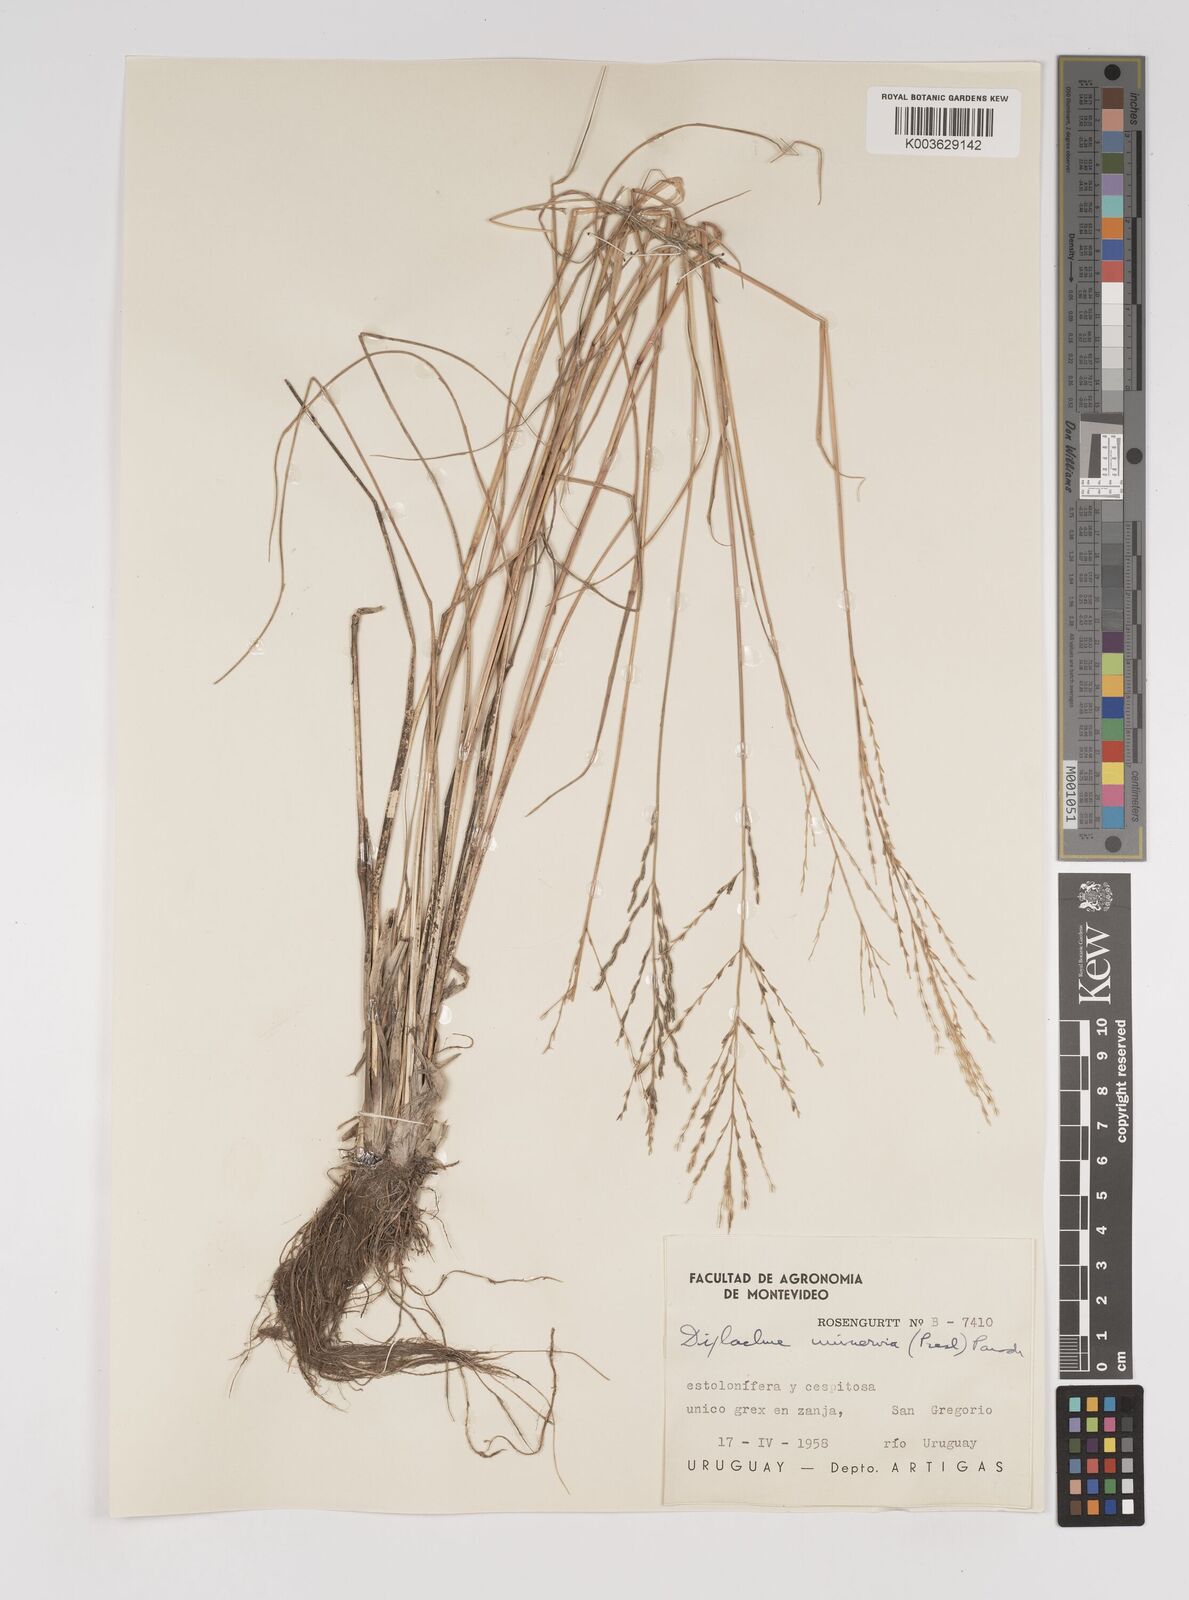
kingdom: Plantae
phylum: Tracheophyta
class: Liliopsida
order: Poales
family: Poaceae
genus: Diplachne
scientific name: Diplachne fusca
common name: Brown beetle grass
